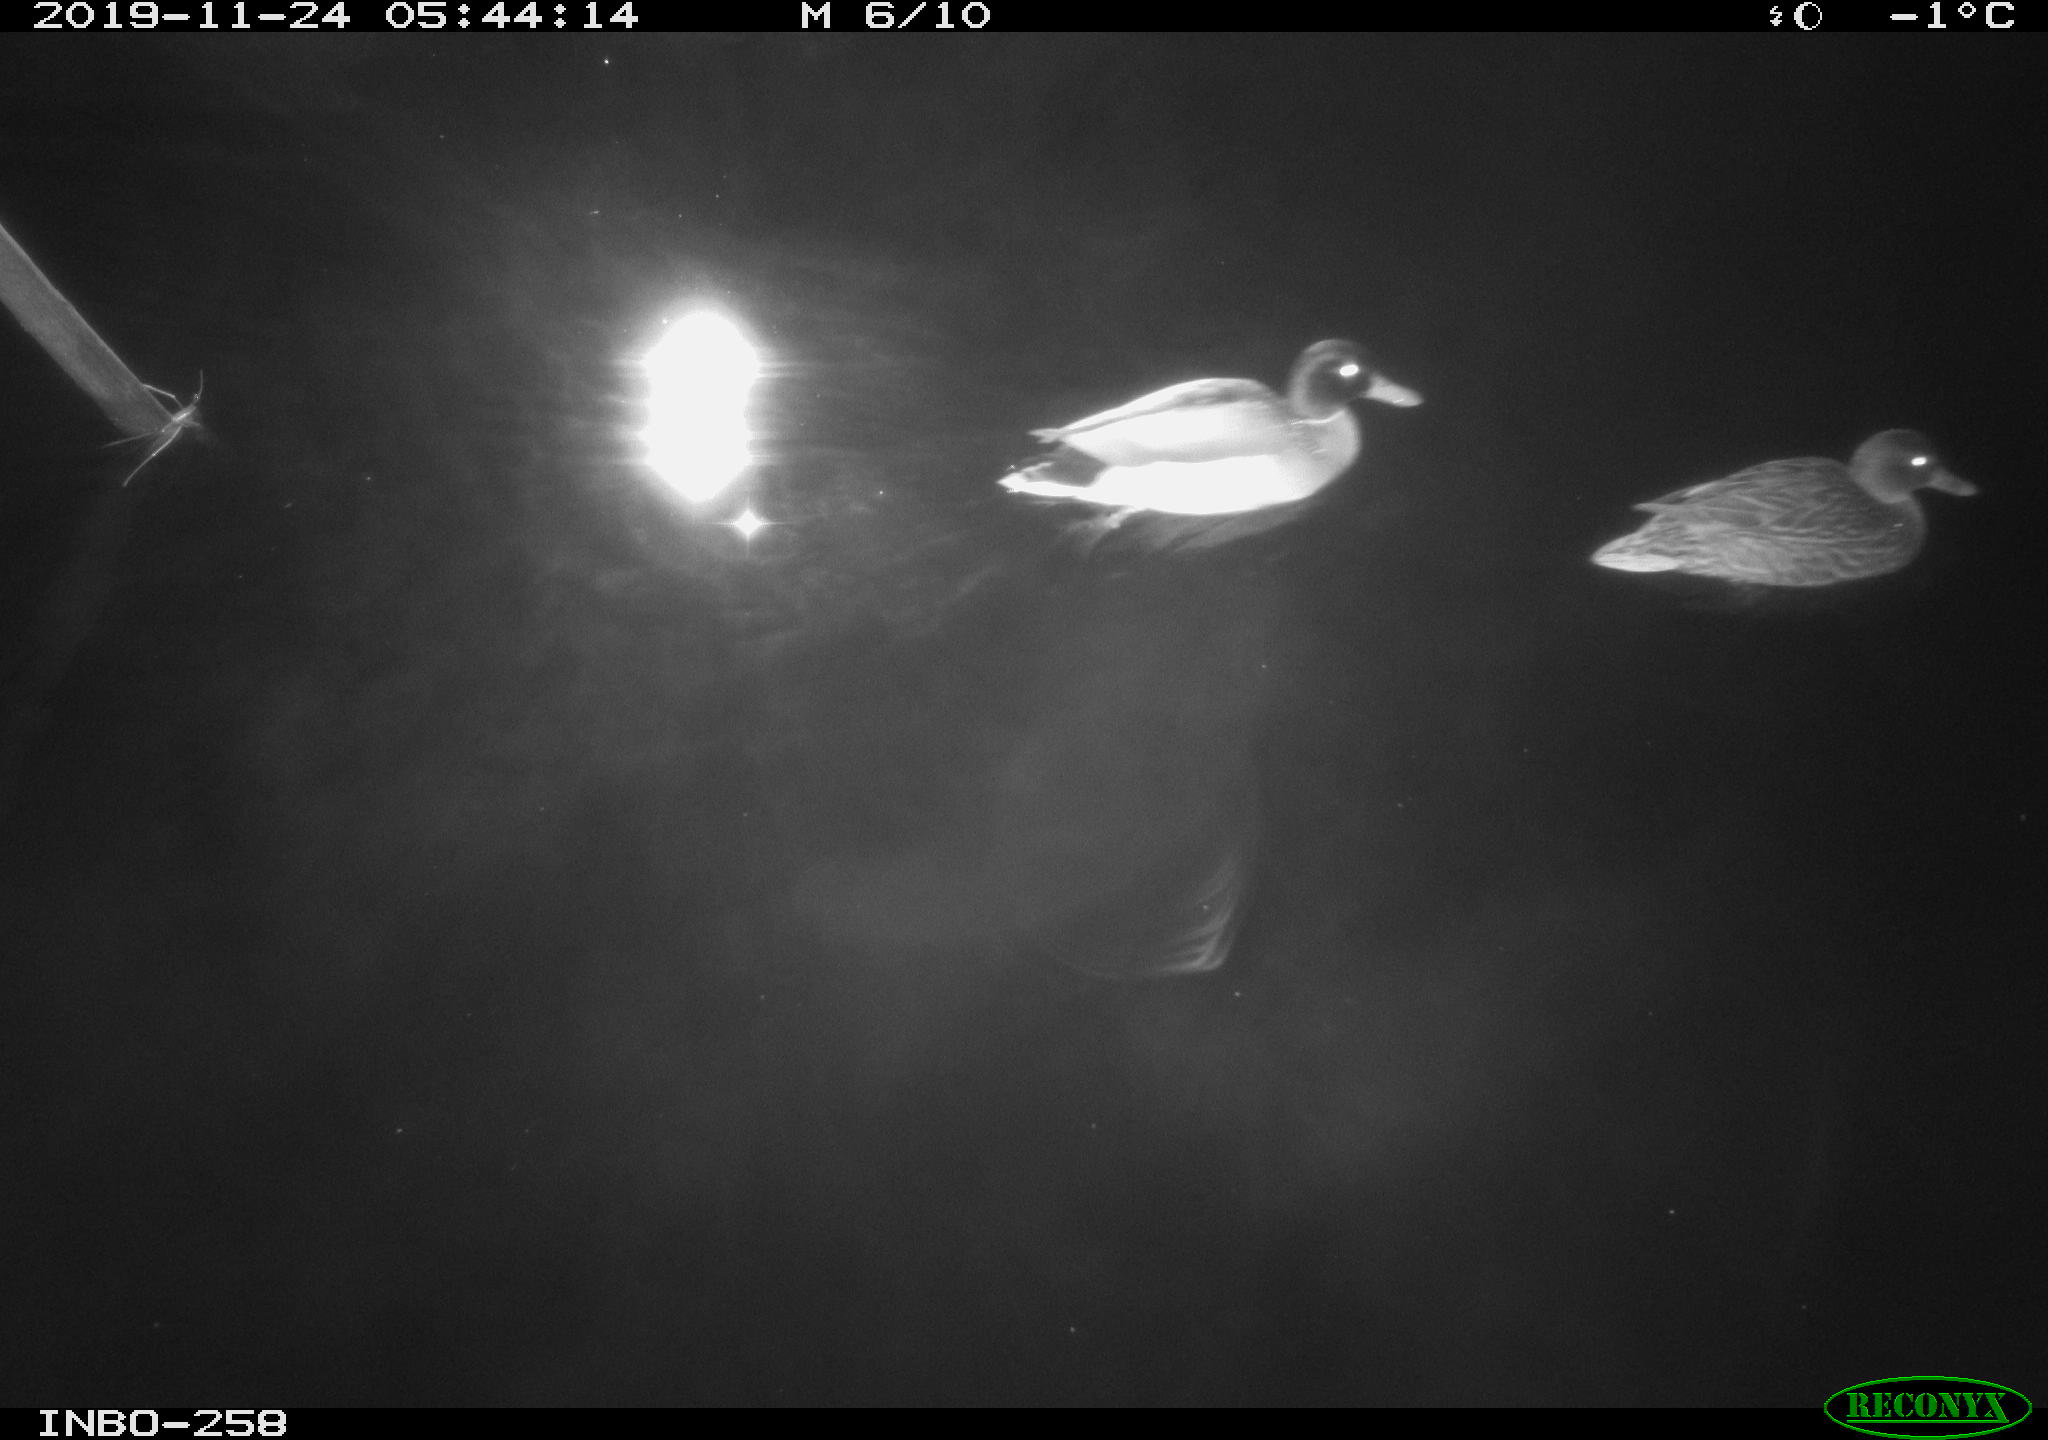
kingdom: Animalia
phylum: Chordata
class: Aves
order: Anseriformes
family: Anatidae
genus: Anas
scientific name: Anas platyrhynchos
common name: Mallard
